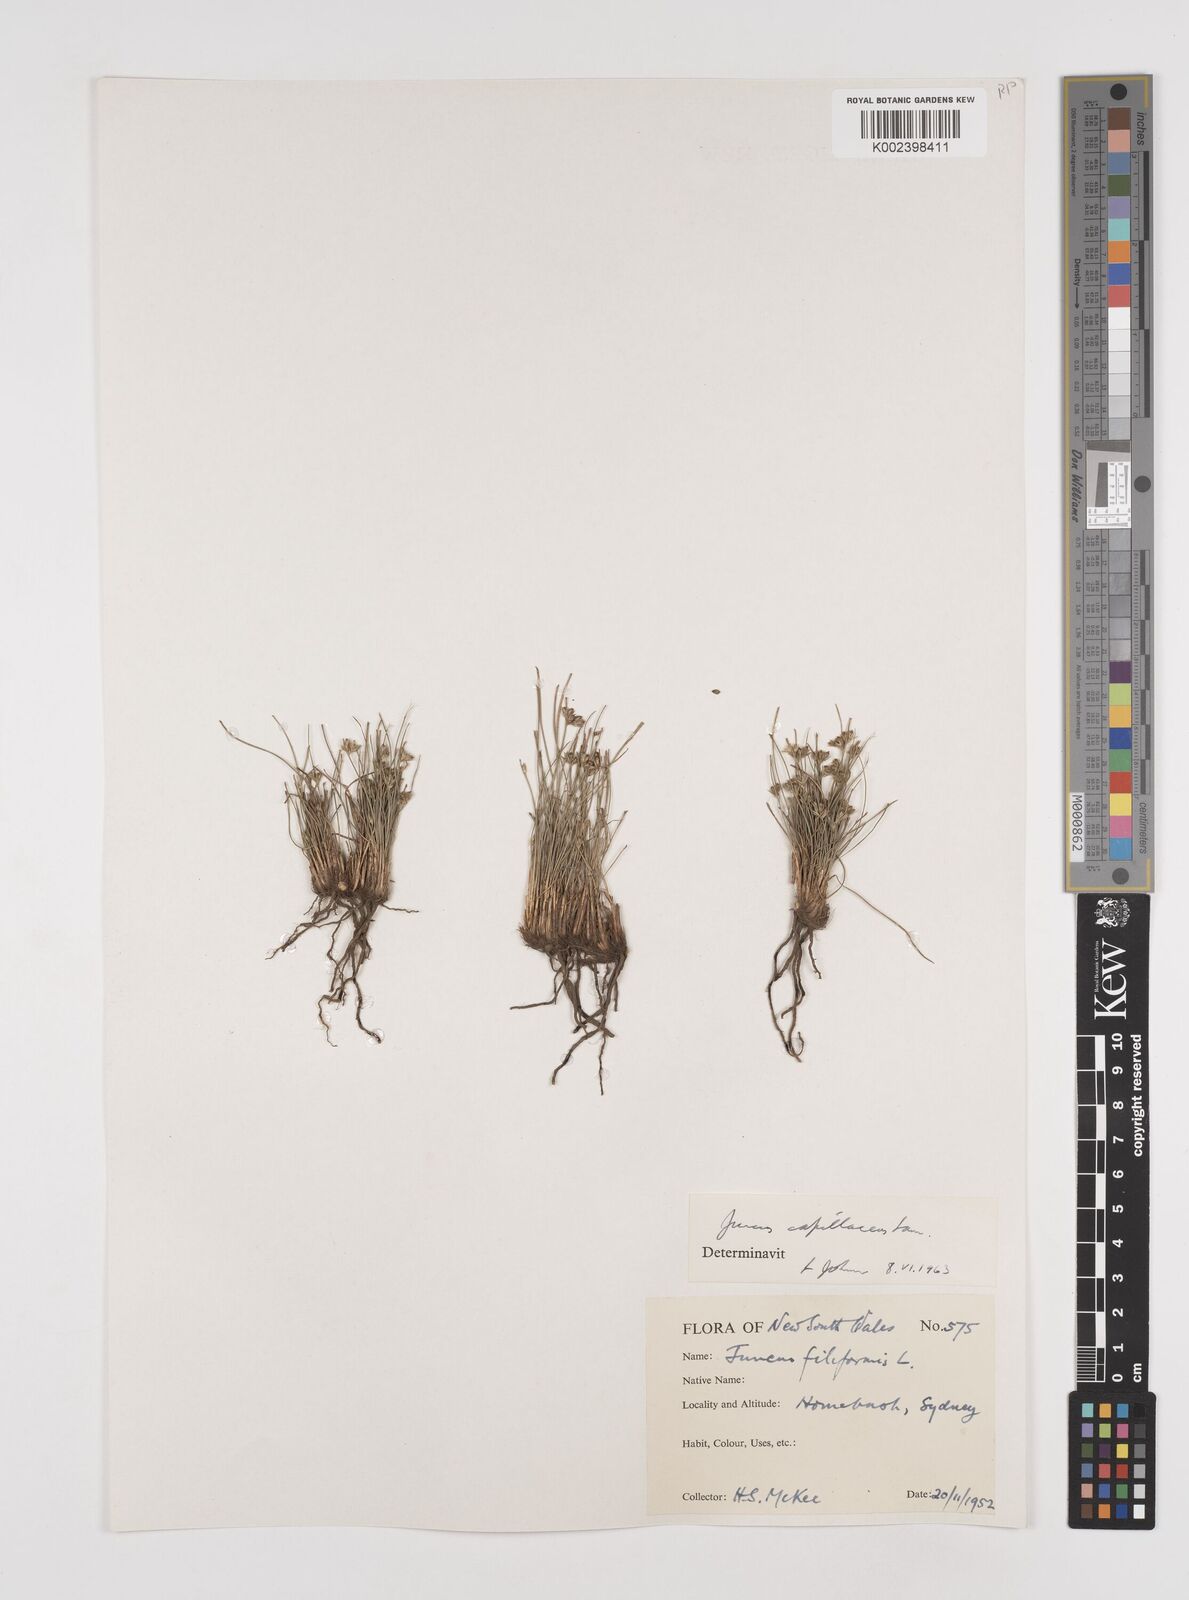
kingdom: Plantae
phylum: Tracheophyta
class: Liliopsida
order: Poales
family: Juncaceae
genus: Juncus
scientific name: Juncus capillaceus
